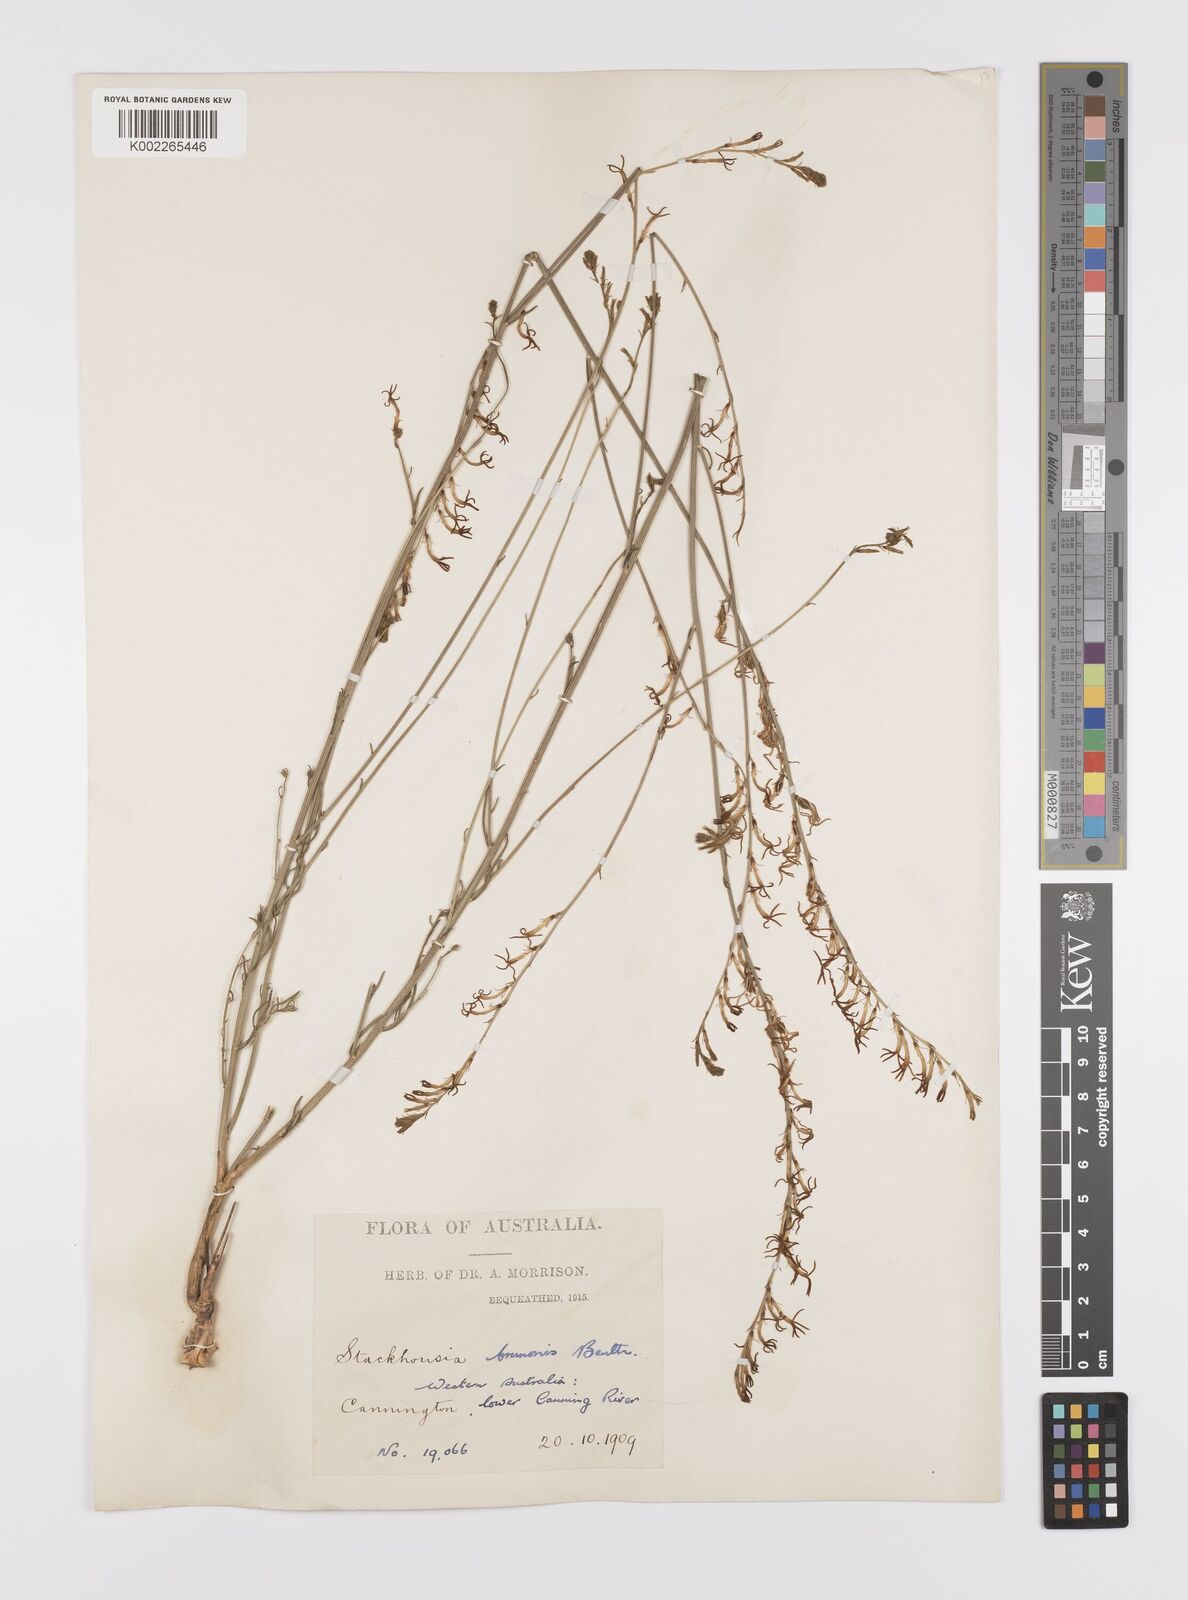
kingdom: Plantae
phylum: Tracheophyta
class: Magnoliopsida
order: Celastrales
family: Celastraceae
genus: Tripterococcus
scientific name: Tripterococcus brunonis
